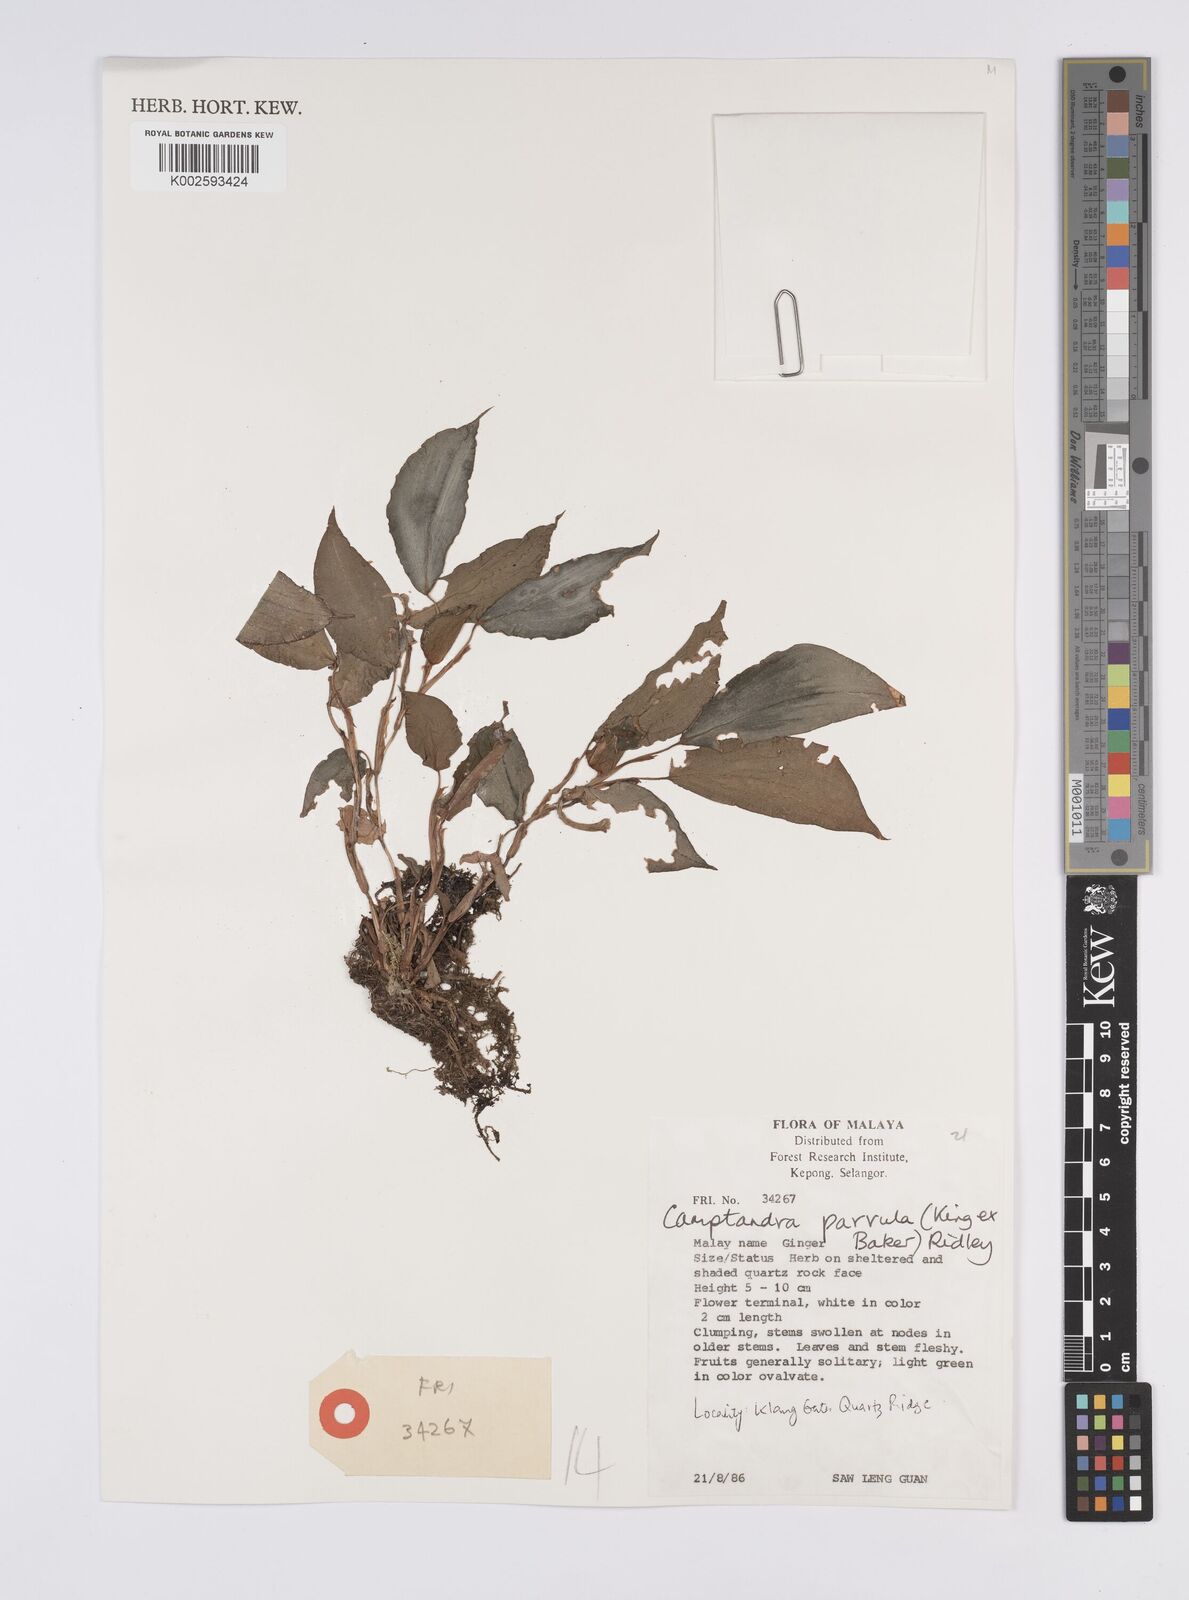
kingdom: Plantae
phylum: Tracheophyta
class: Liliopsida
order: Zingiberales
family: Zingiberaceae
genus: Camptandra
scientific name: Camptandra parvula
